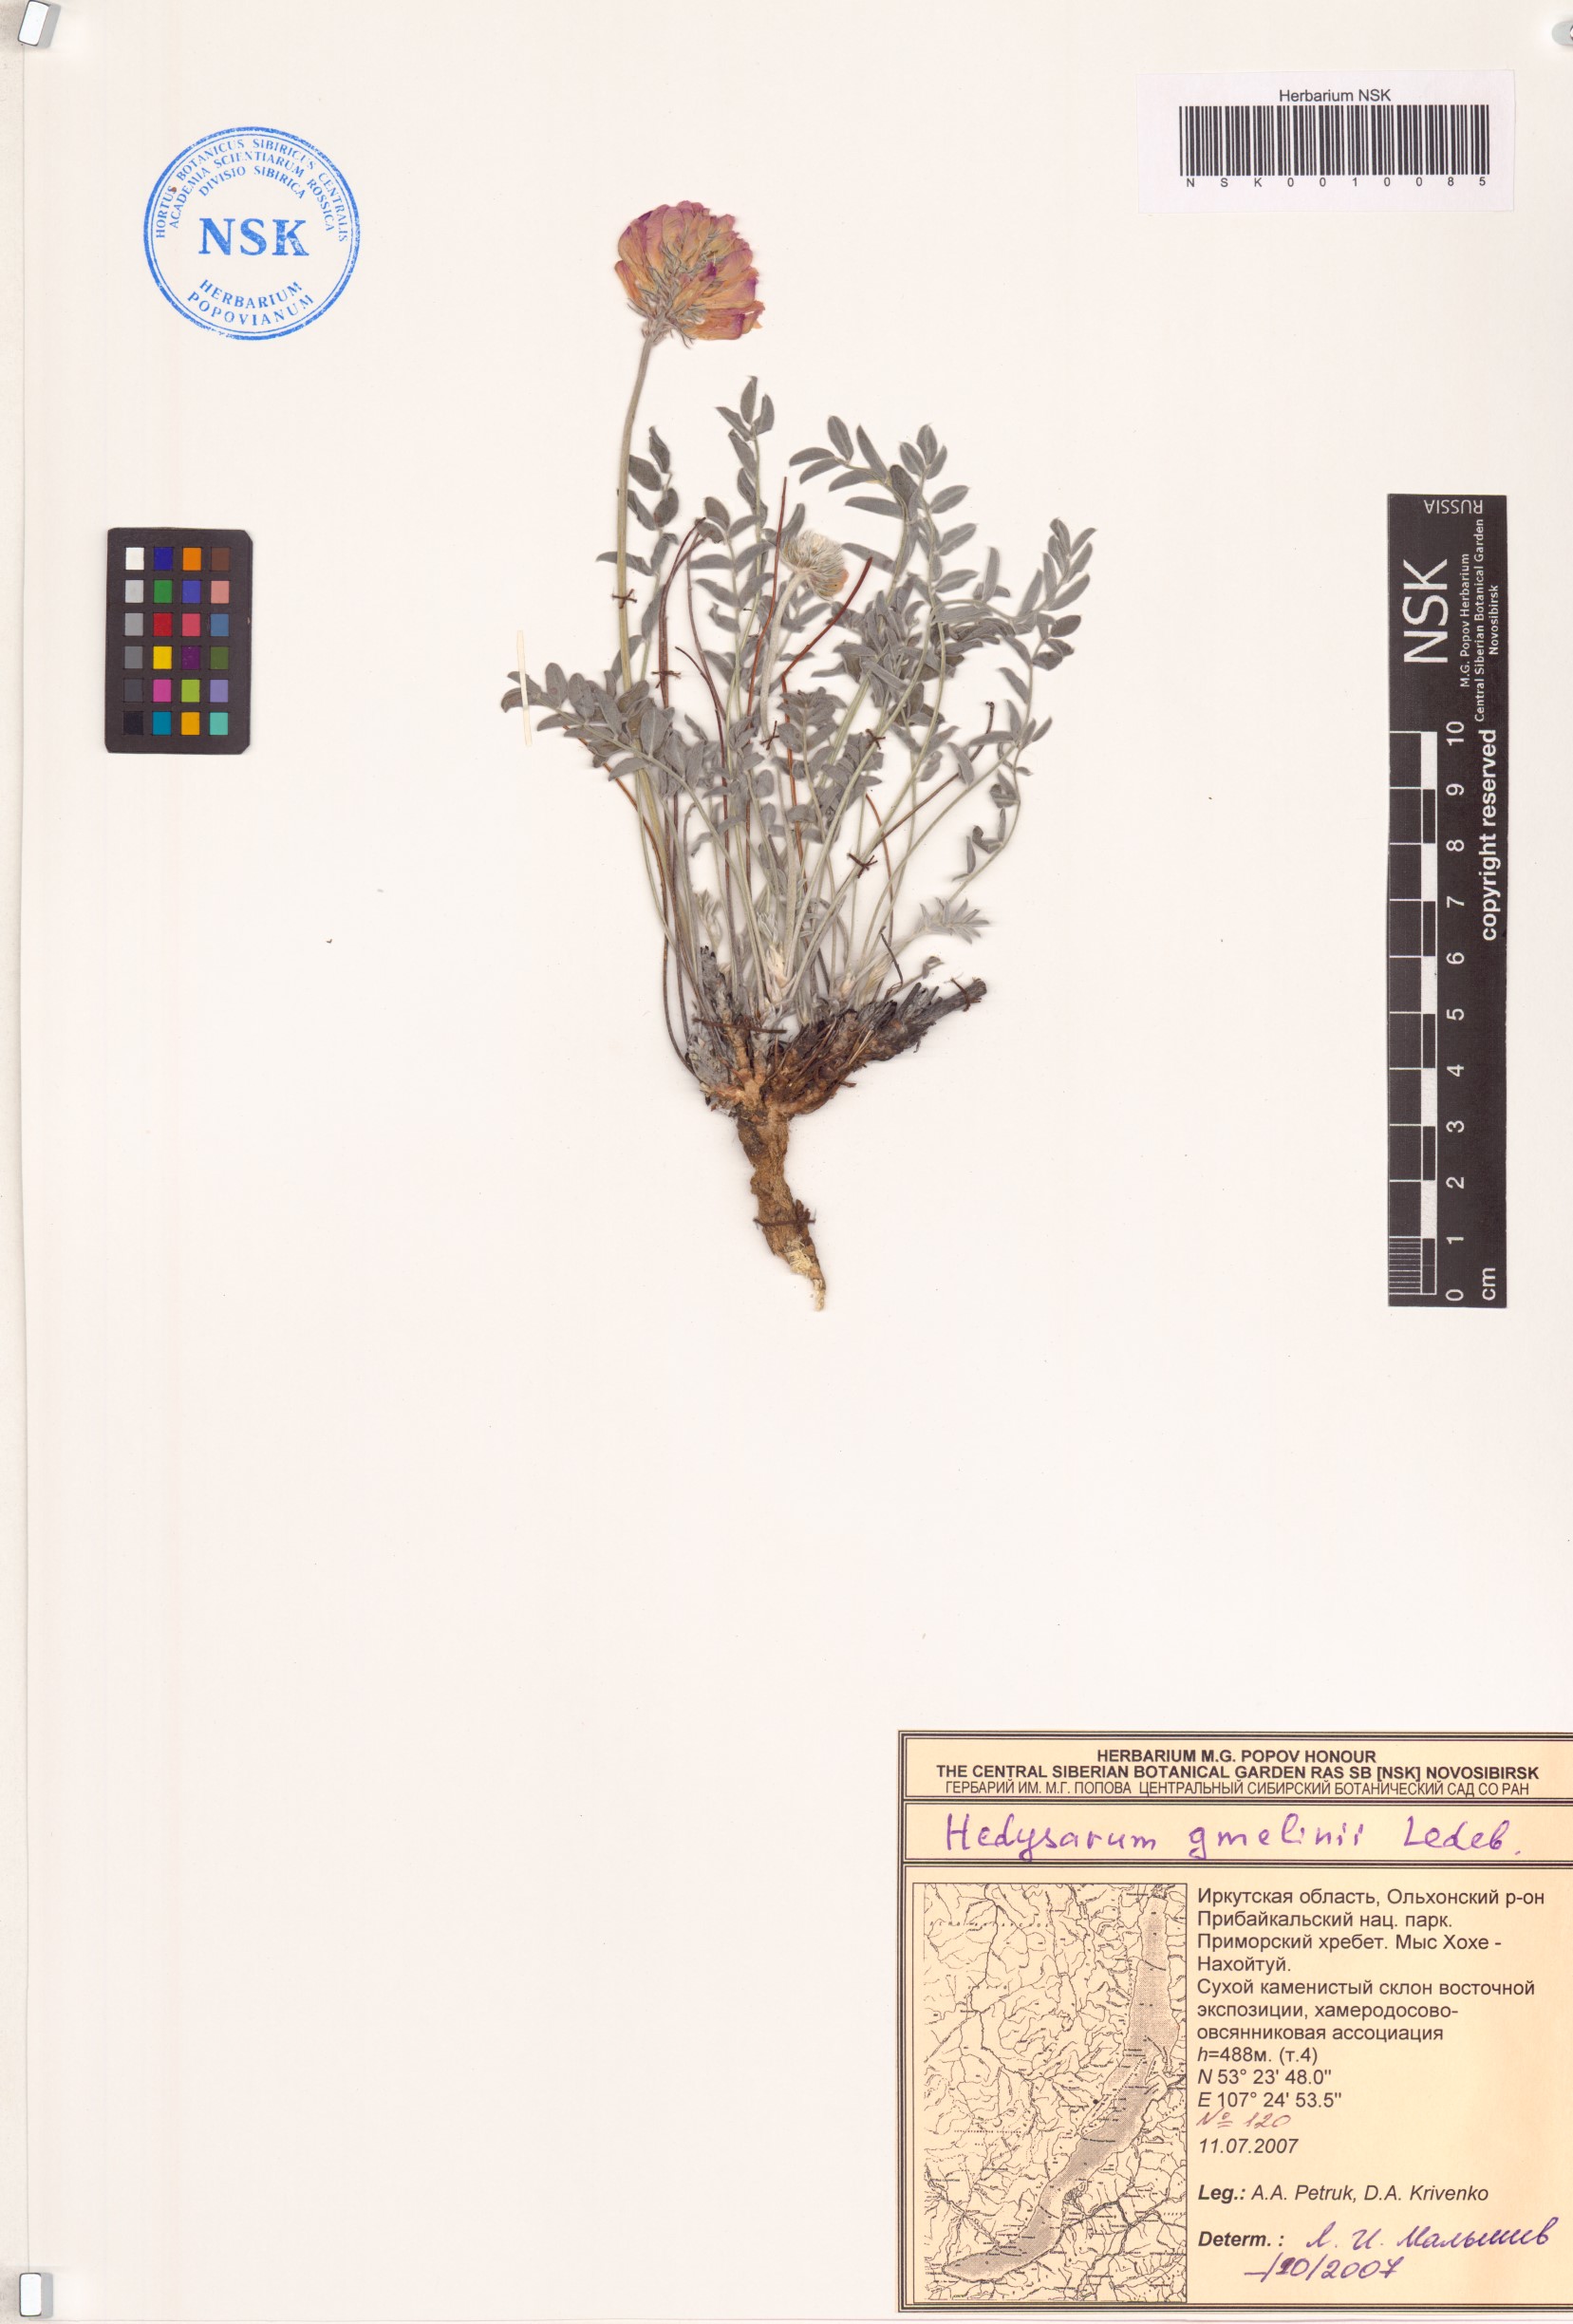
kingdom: Plantae
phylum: Tracheophyta
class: Magnoliopsida
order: Fabales
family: Fabaceae
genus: Hedysarum
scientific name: Hedysarum gmelinii
